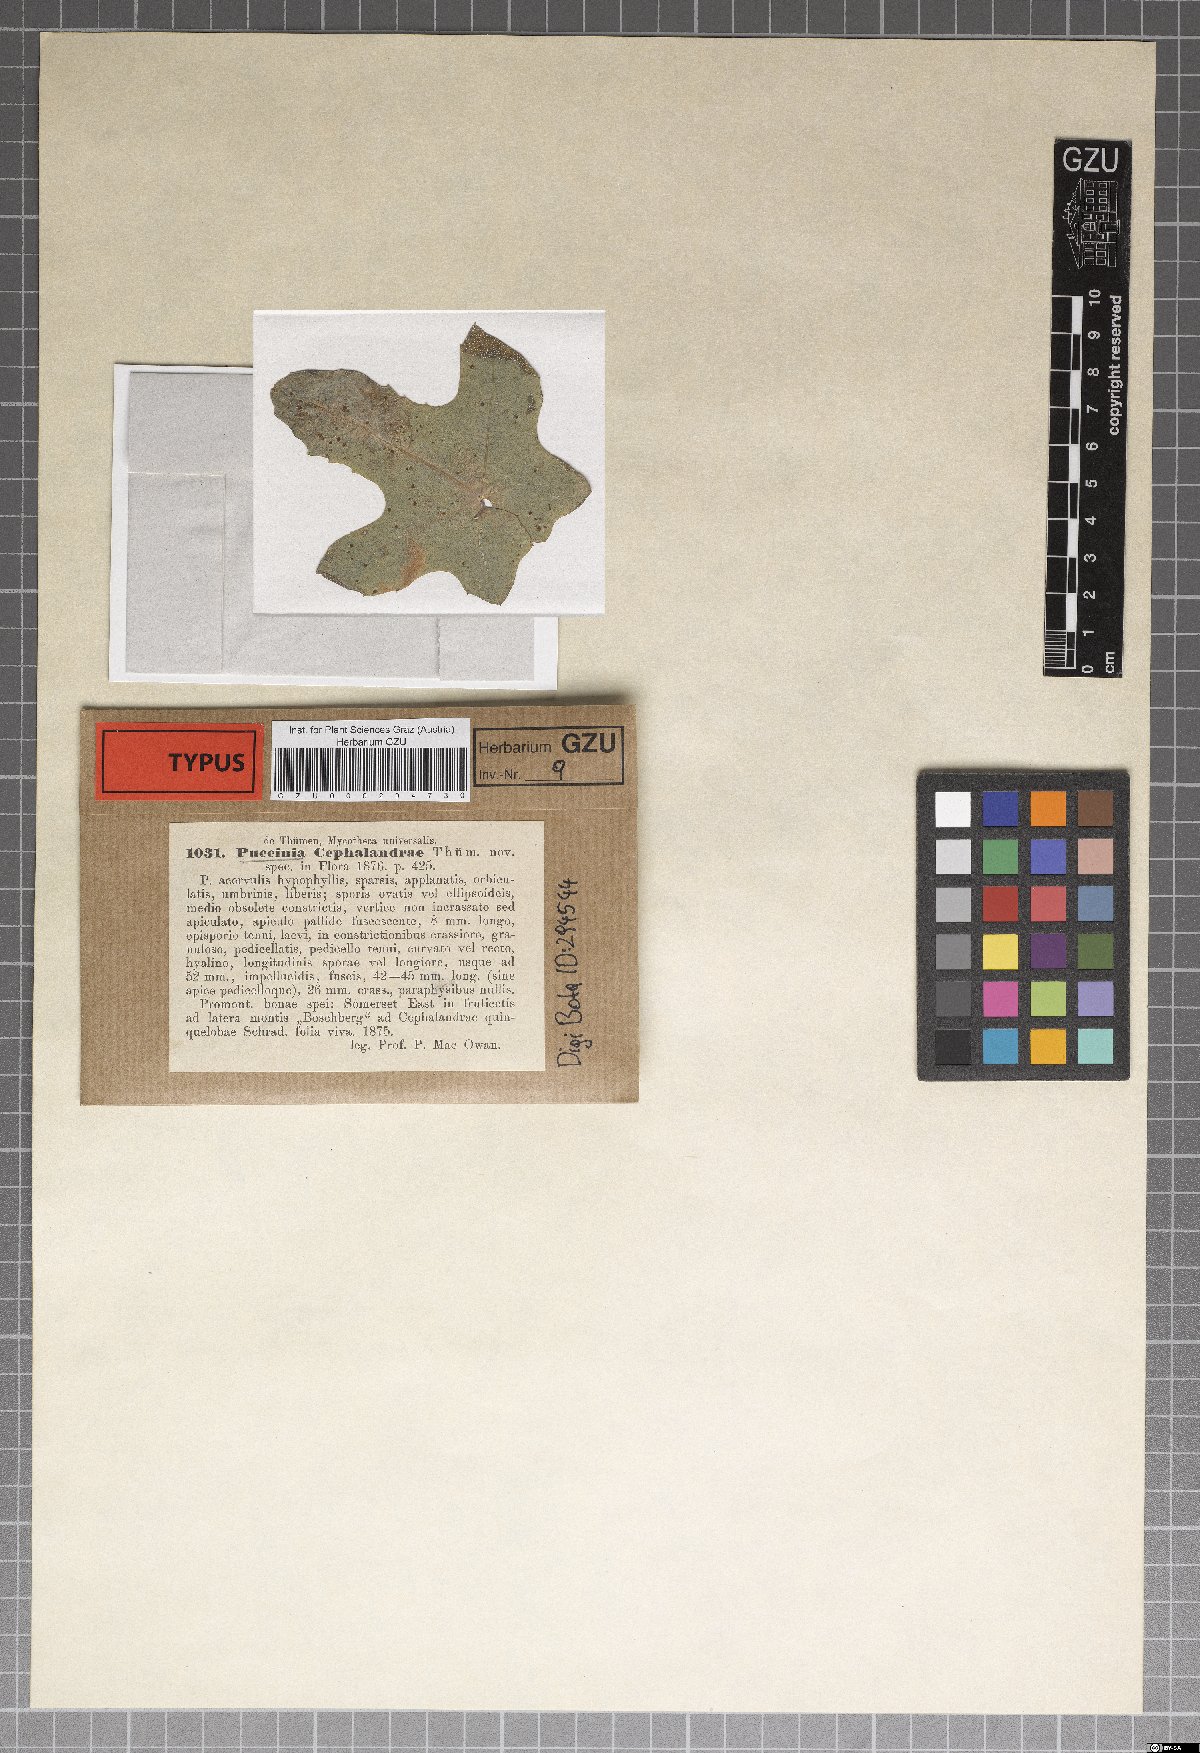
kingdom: Fungi
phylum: Basidiomycota
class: Pucciniomycetes
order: Pucciniales
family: Pucciniaceae
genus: Puccinia
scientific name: Puccinia cephalandrae
